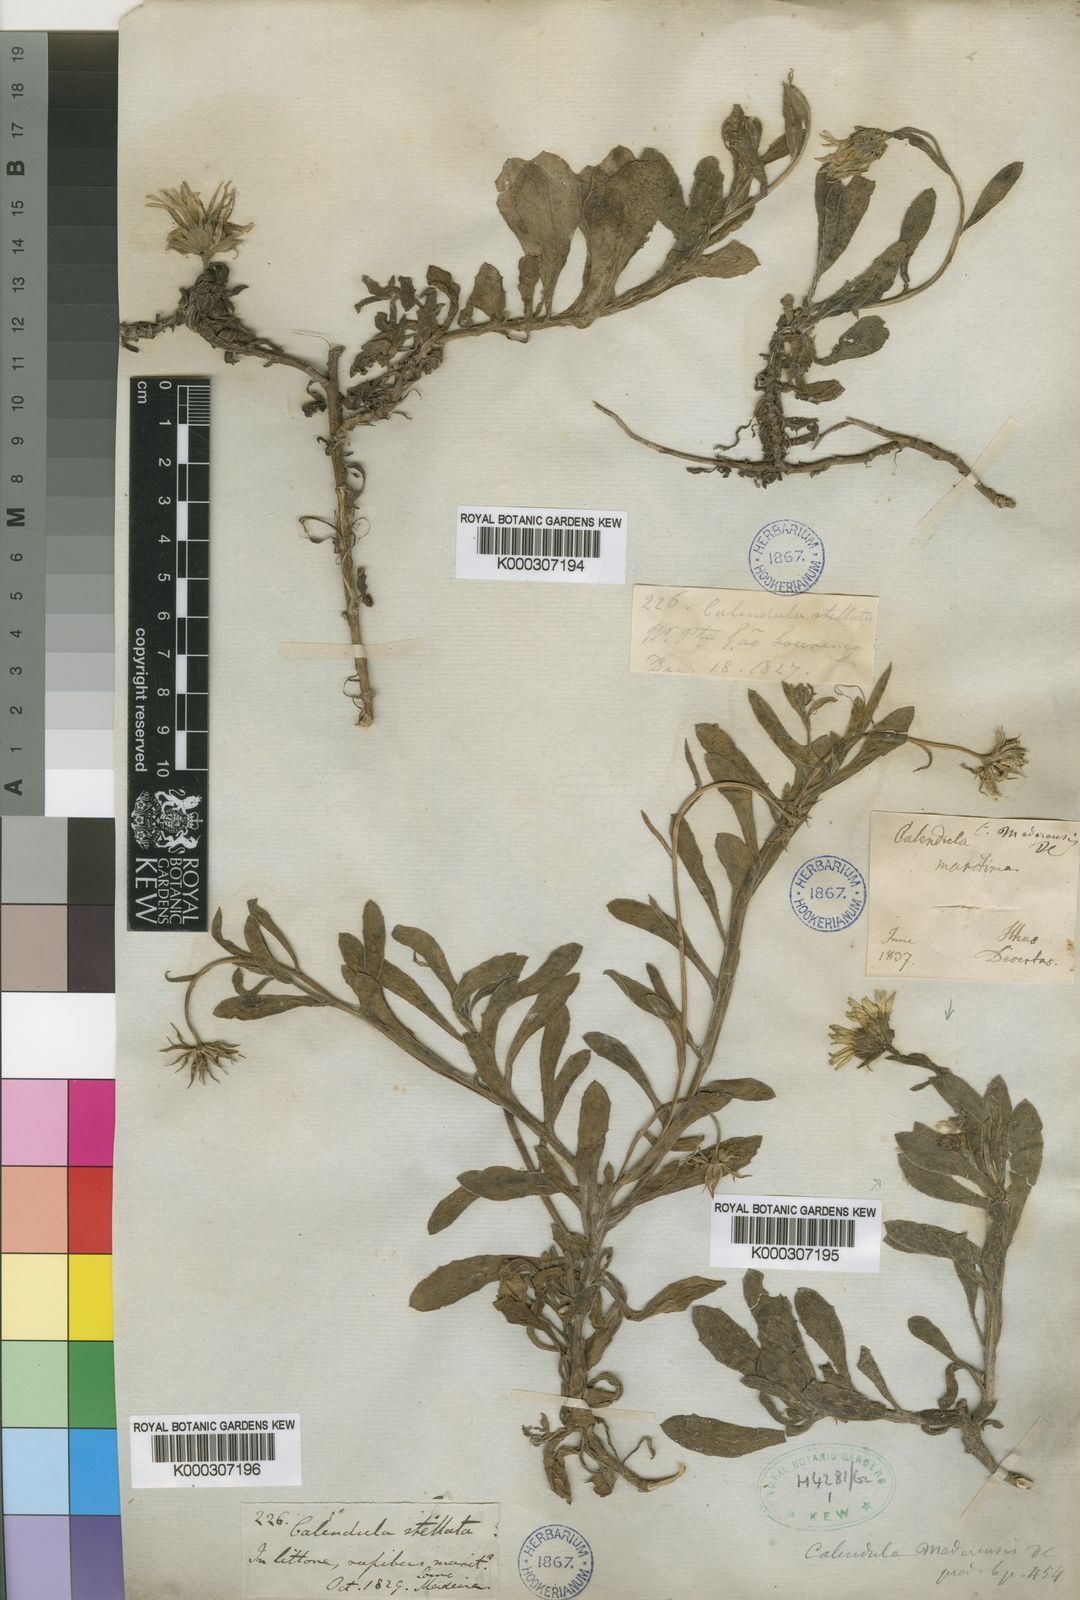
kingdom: Plantae
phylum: Tracheophyta
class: Magnoliopsida
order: Asterales
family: Asteraceae
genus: Calendula
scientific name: Calendula suffruticosa
